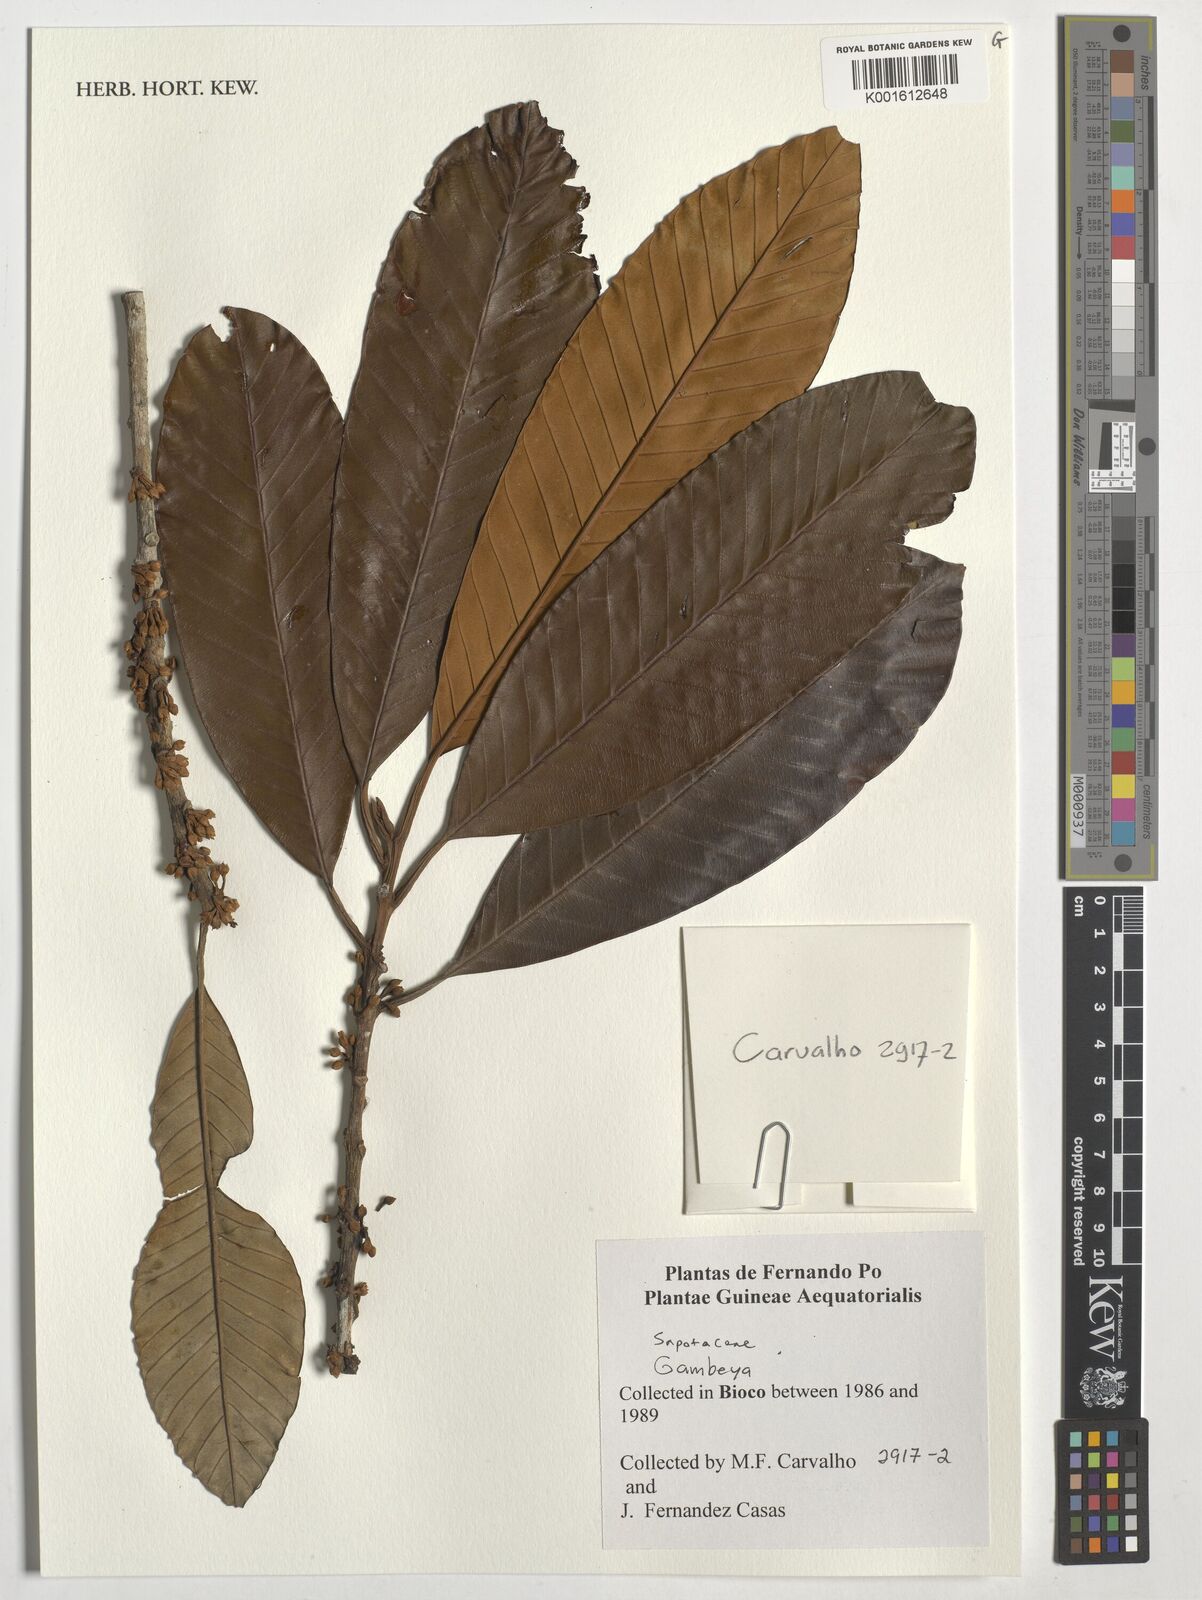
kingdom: Plantae
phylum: Tracheophyta
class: Magnoliopsida
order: Ericales
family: Sapotaceae
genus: Gambeya
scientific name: Gambeya
